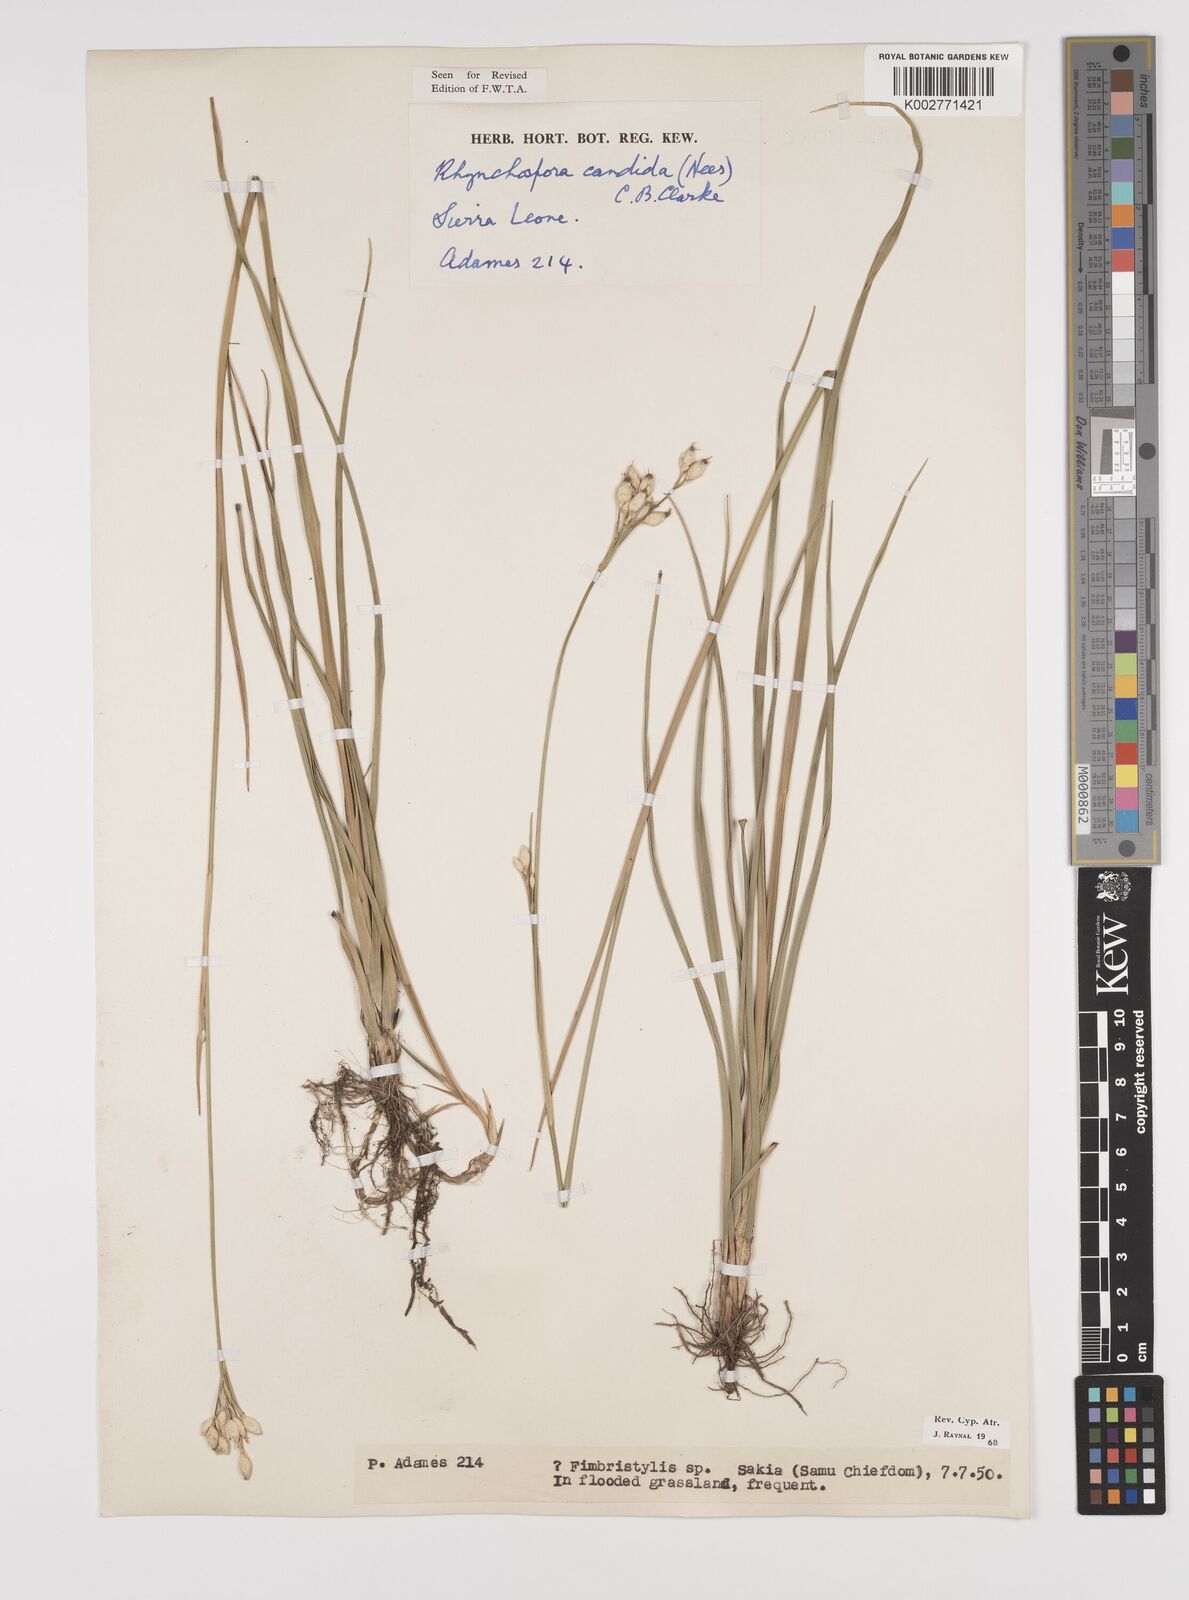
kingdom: Plantae
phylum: Tracheophyta
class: Liliopsida
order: Poales
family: Cyperaceae
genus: Rhynchospora
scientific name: Rhynchospora candida
